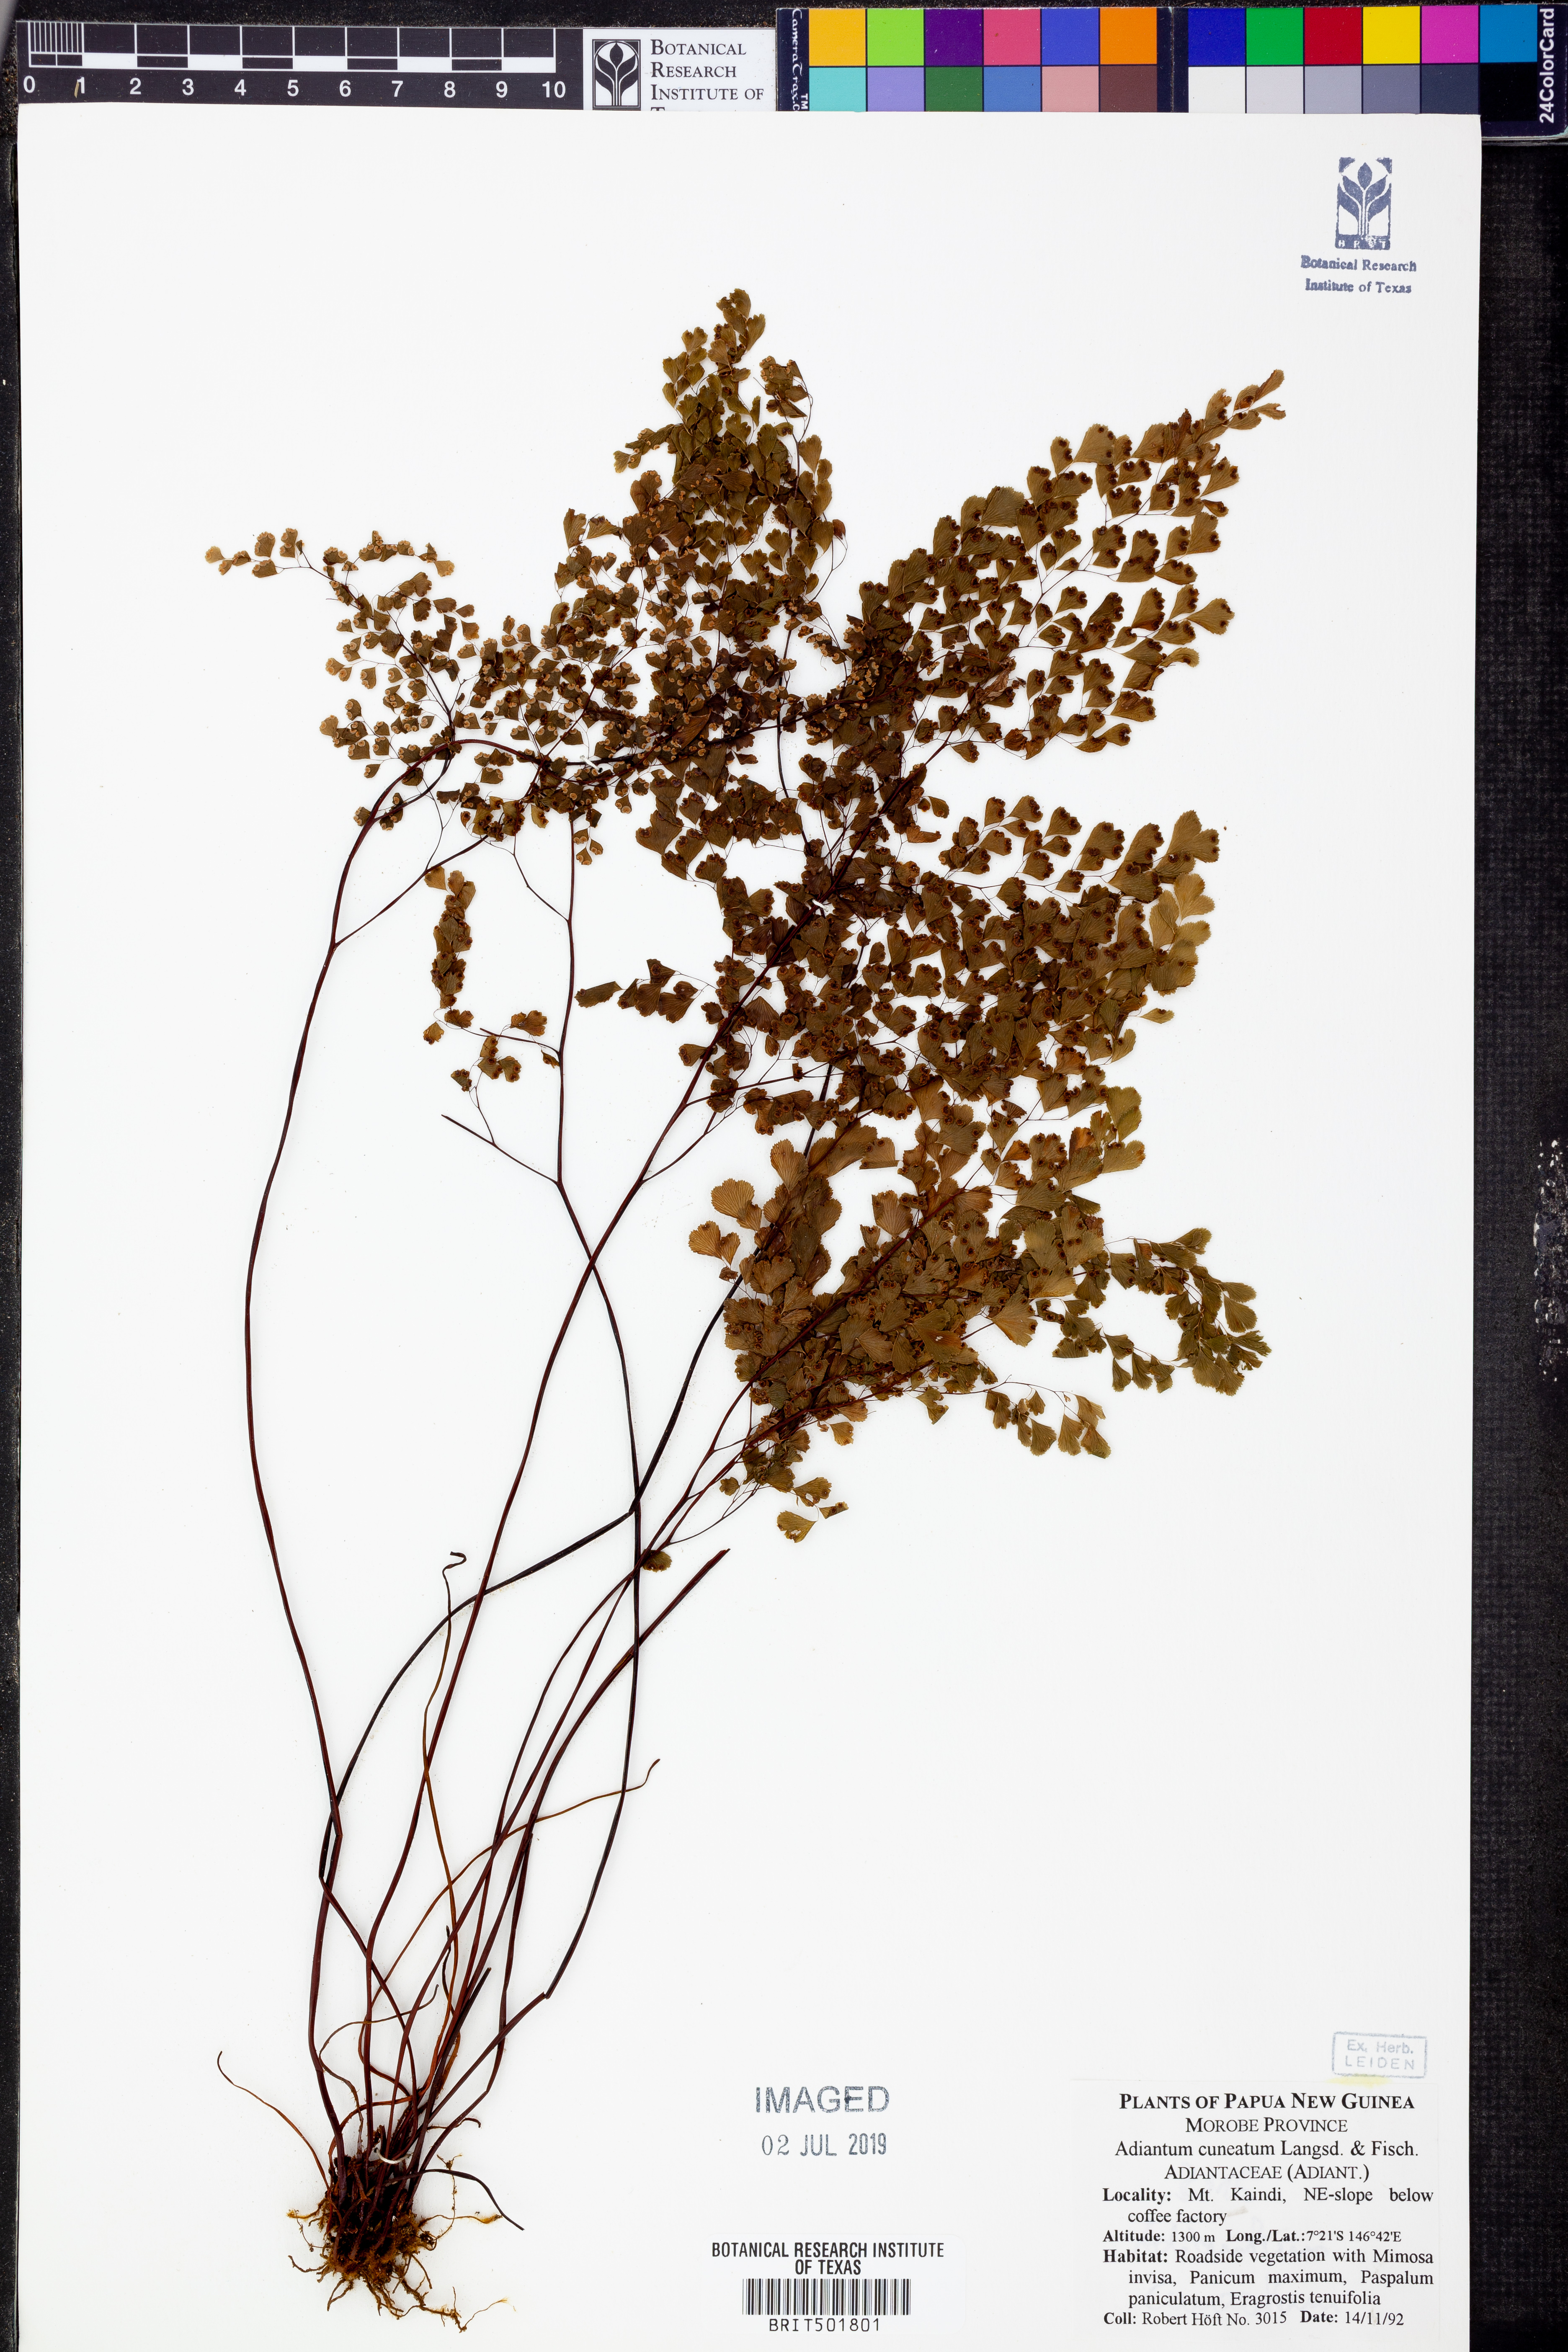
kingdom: Plantae
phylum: Tracheophyta
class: Polypodiopsida
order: Polypodiales
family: Pteridaceae
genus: Adiantum
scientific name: Adiantum raddianum
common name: Delta maidenhair fern
